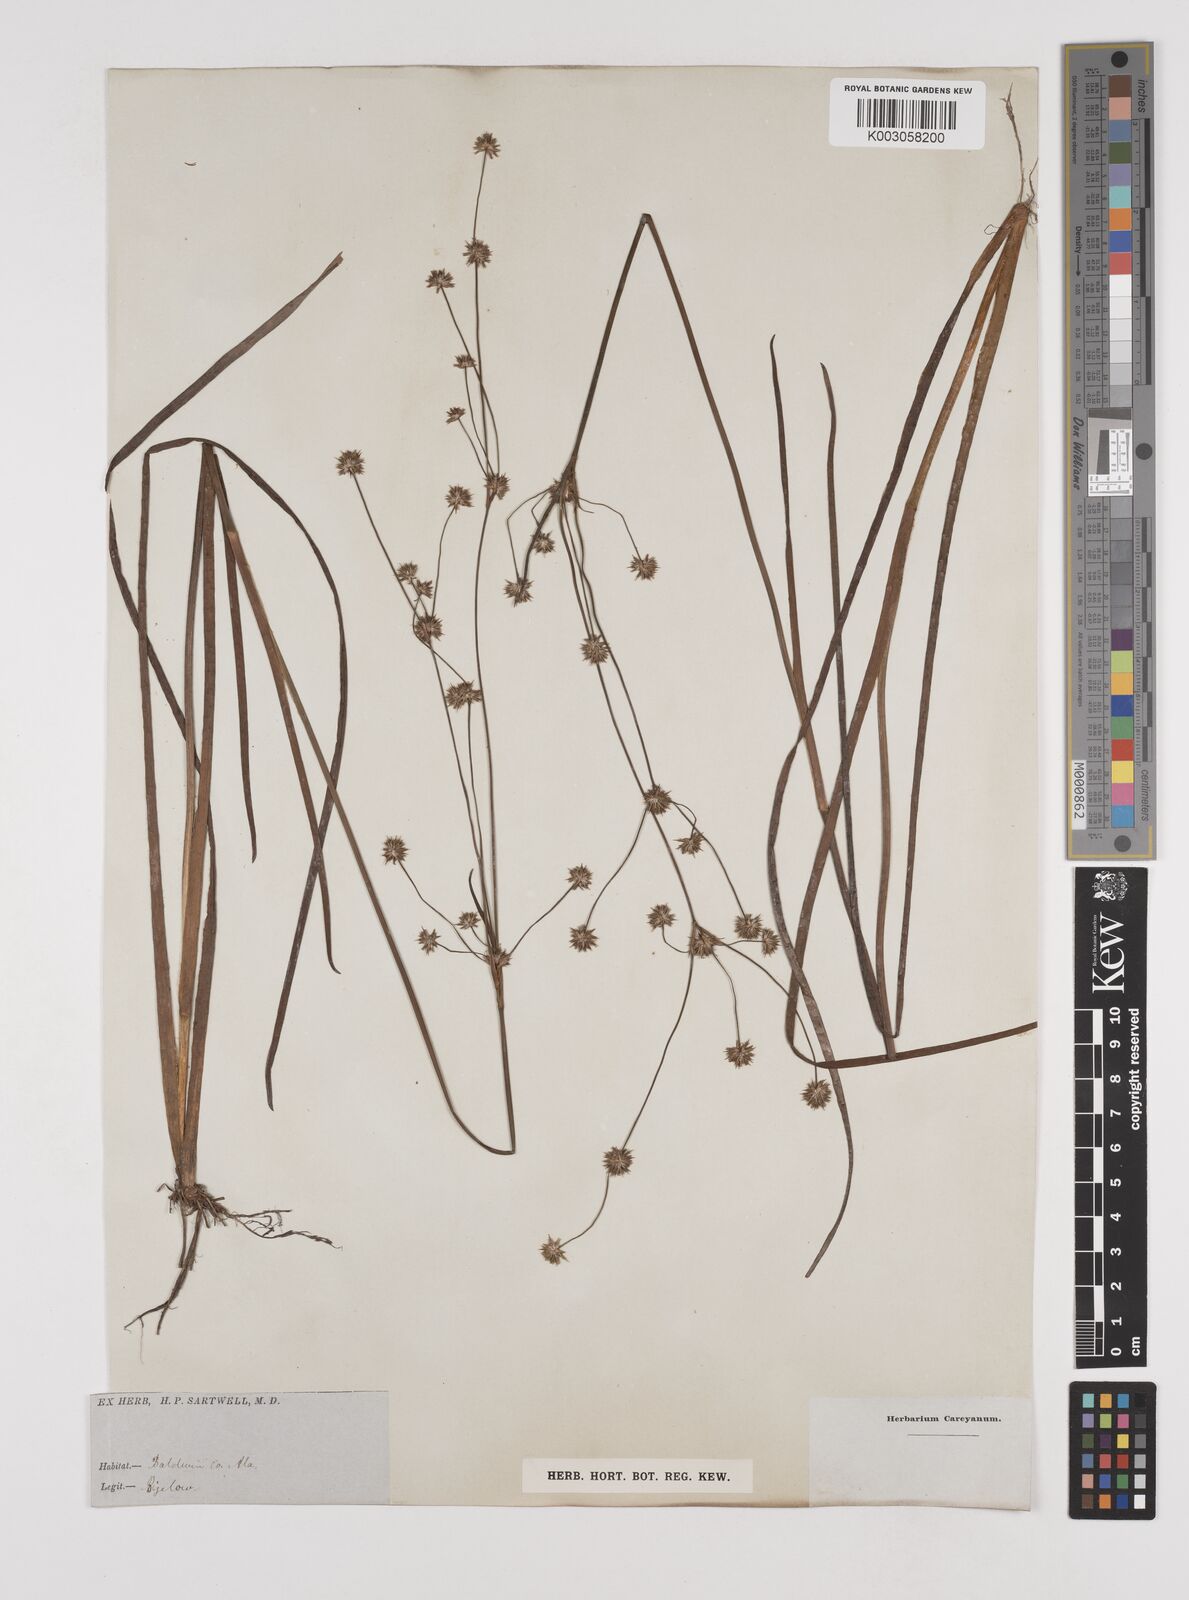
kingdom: Plantae
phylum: Tracheophyta
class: Liliopsida
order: Poales
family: Juncaceae
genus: Juncus
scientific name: Juncus
